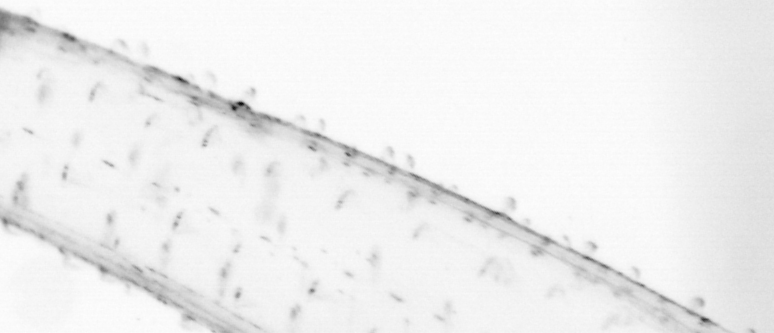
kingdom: Animalia
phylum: Chaetognatha
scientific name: Chaetognatha
